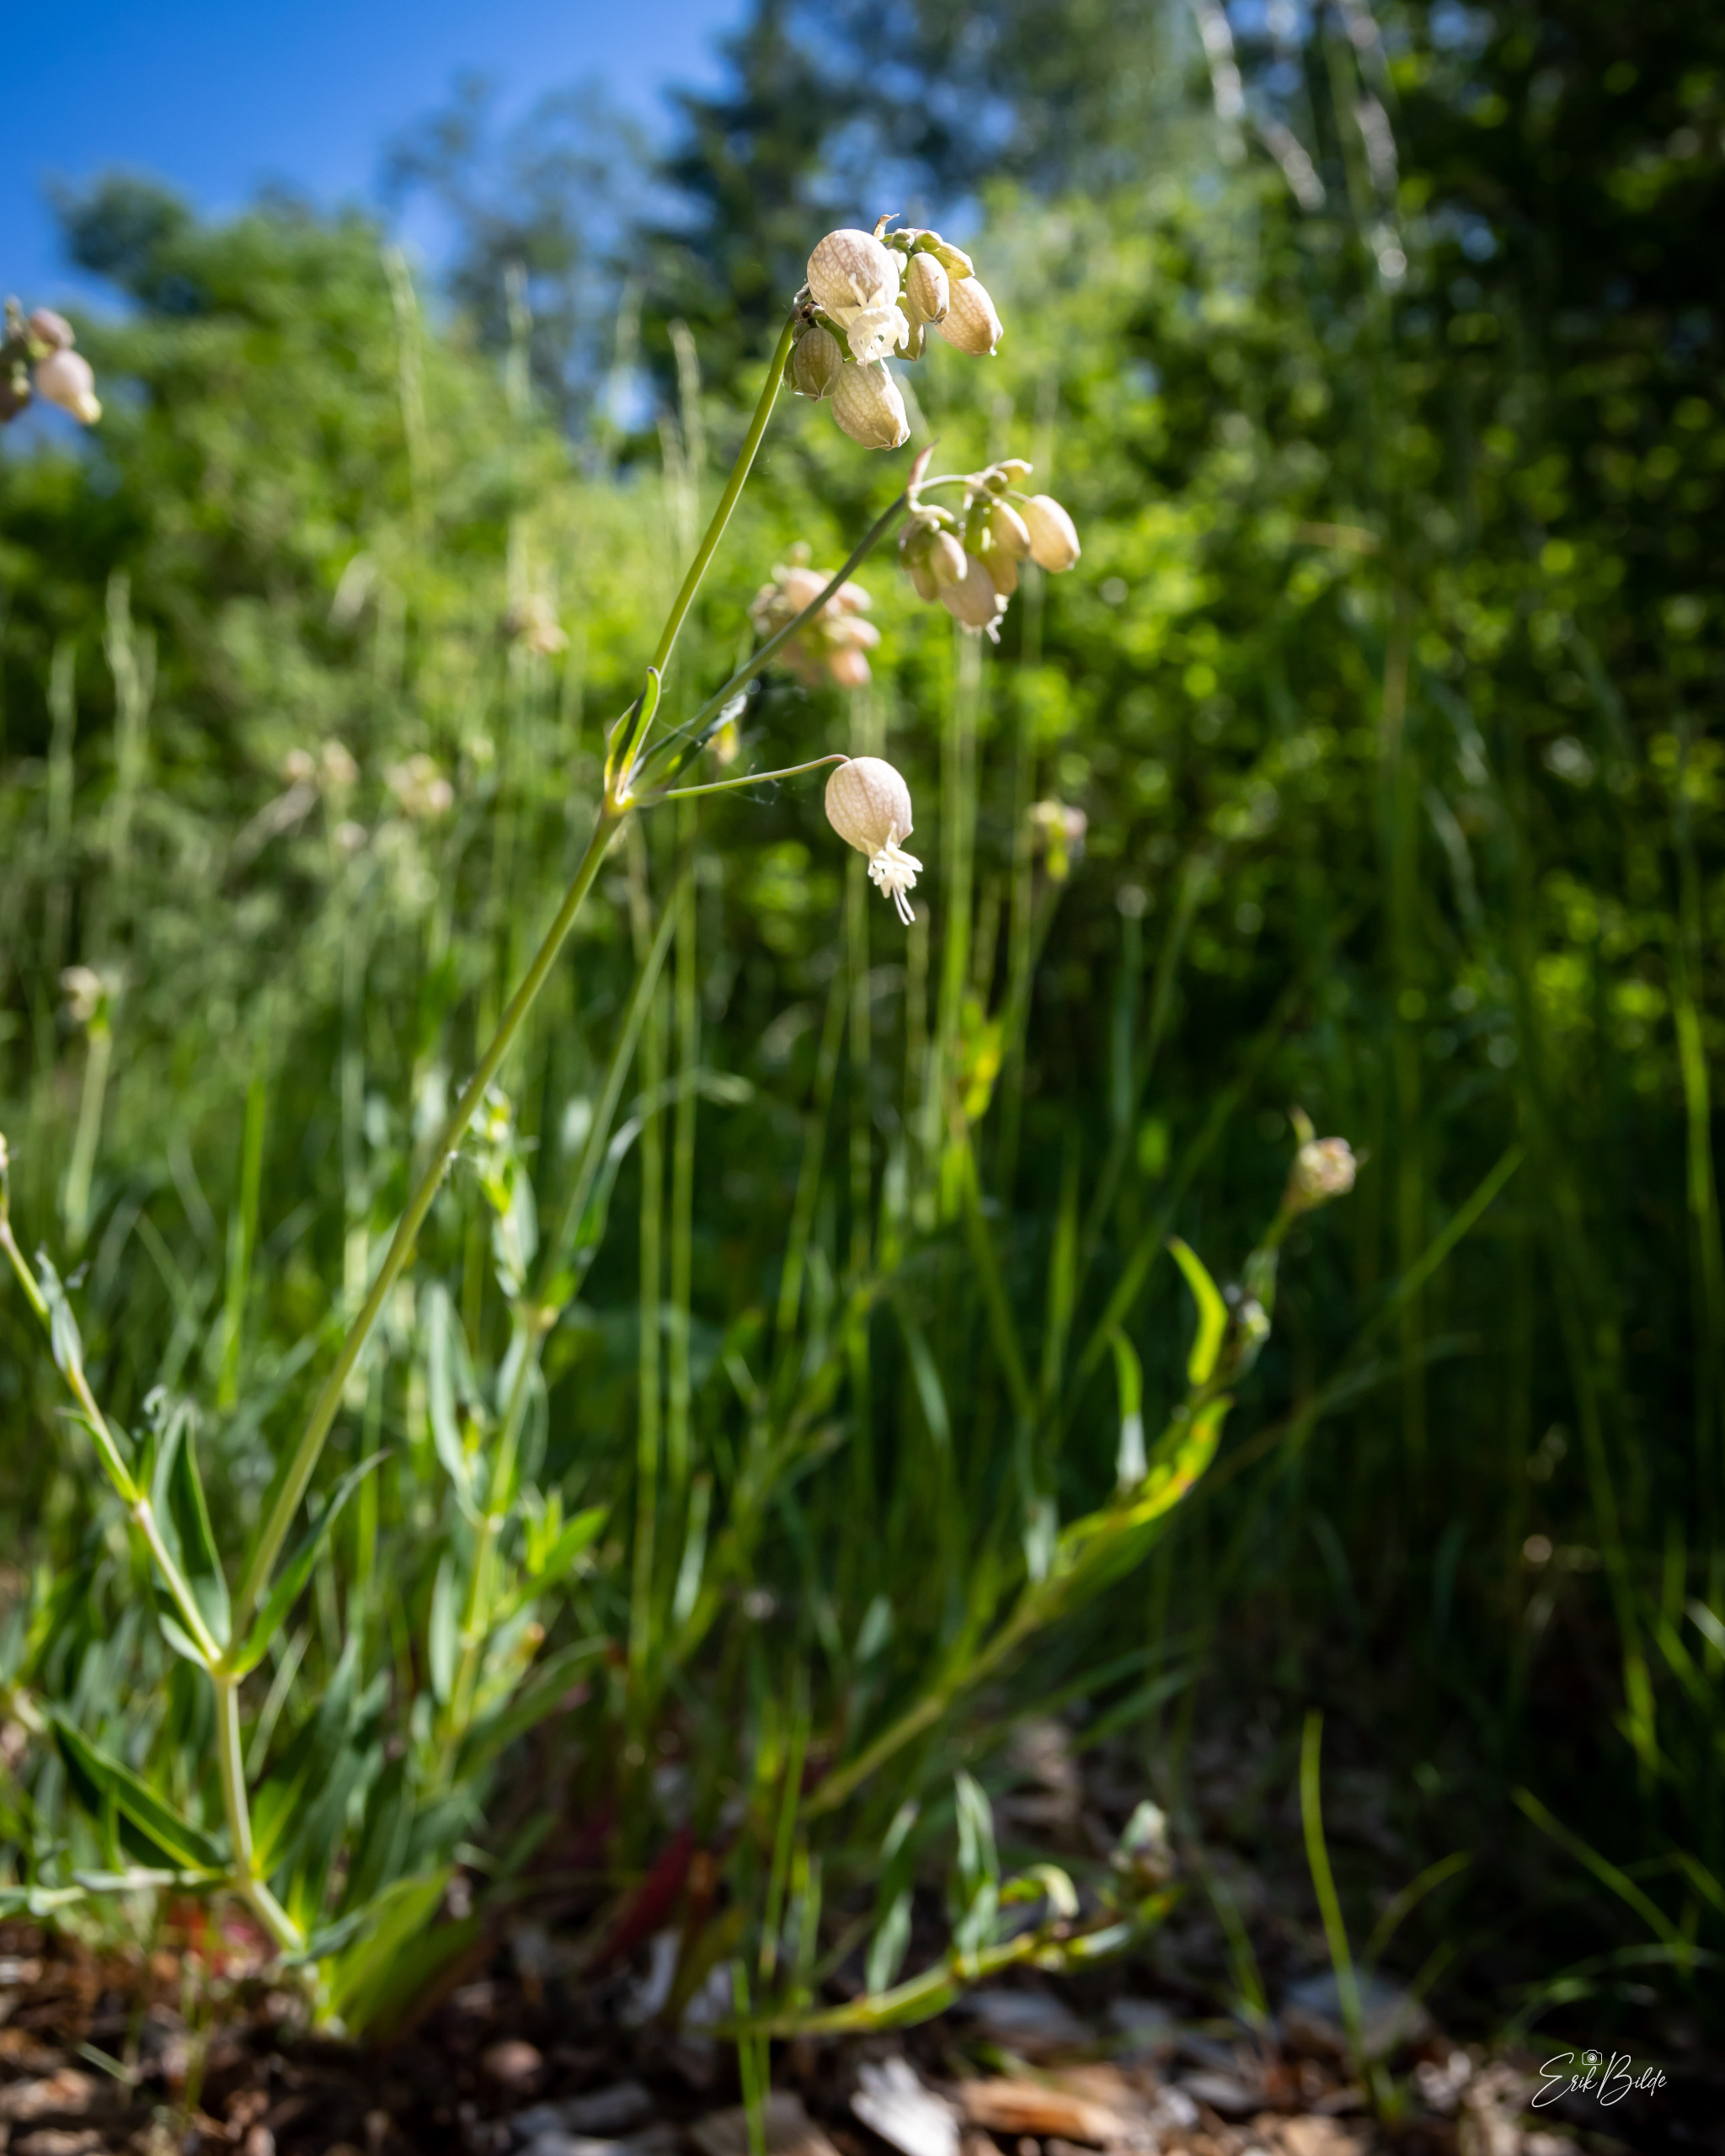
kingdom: Plantae
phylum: Tracheophyta
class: Magnoliopsida
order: Caryophyllales
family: Caryophyllaceae
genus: Silene
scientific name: Silene vulgaris
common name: Blæresmælde
